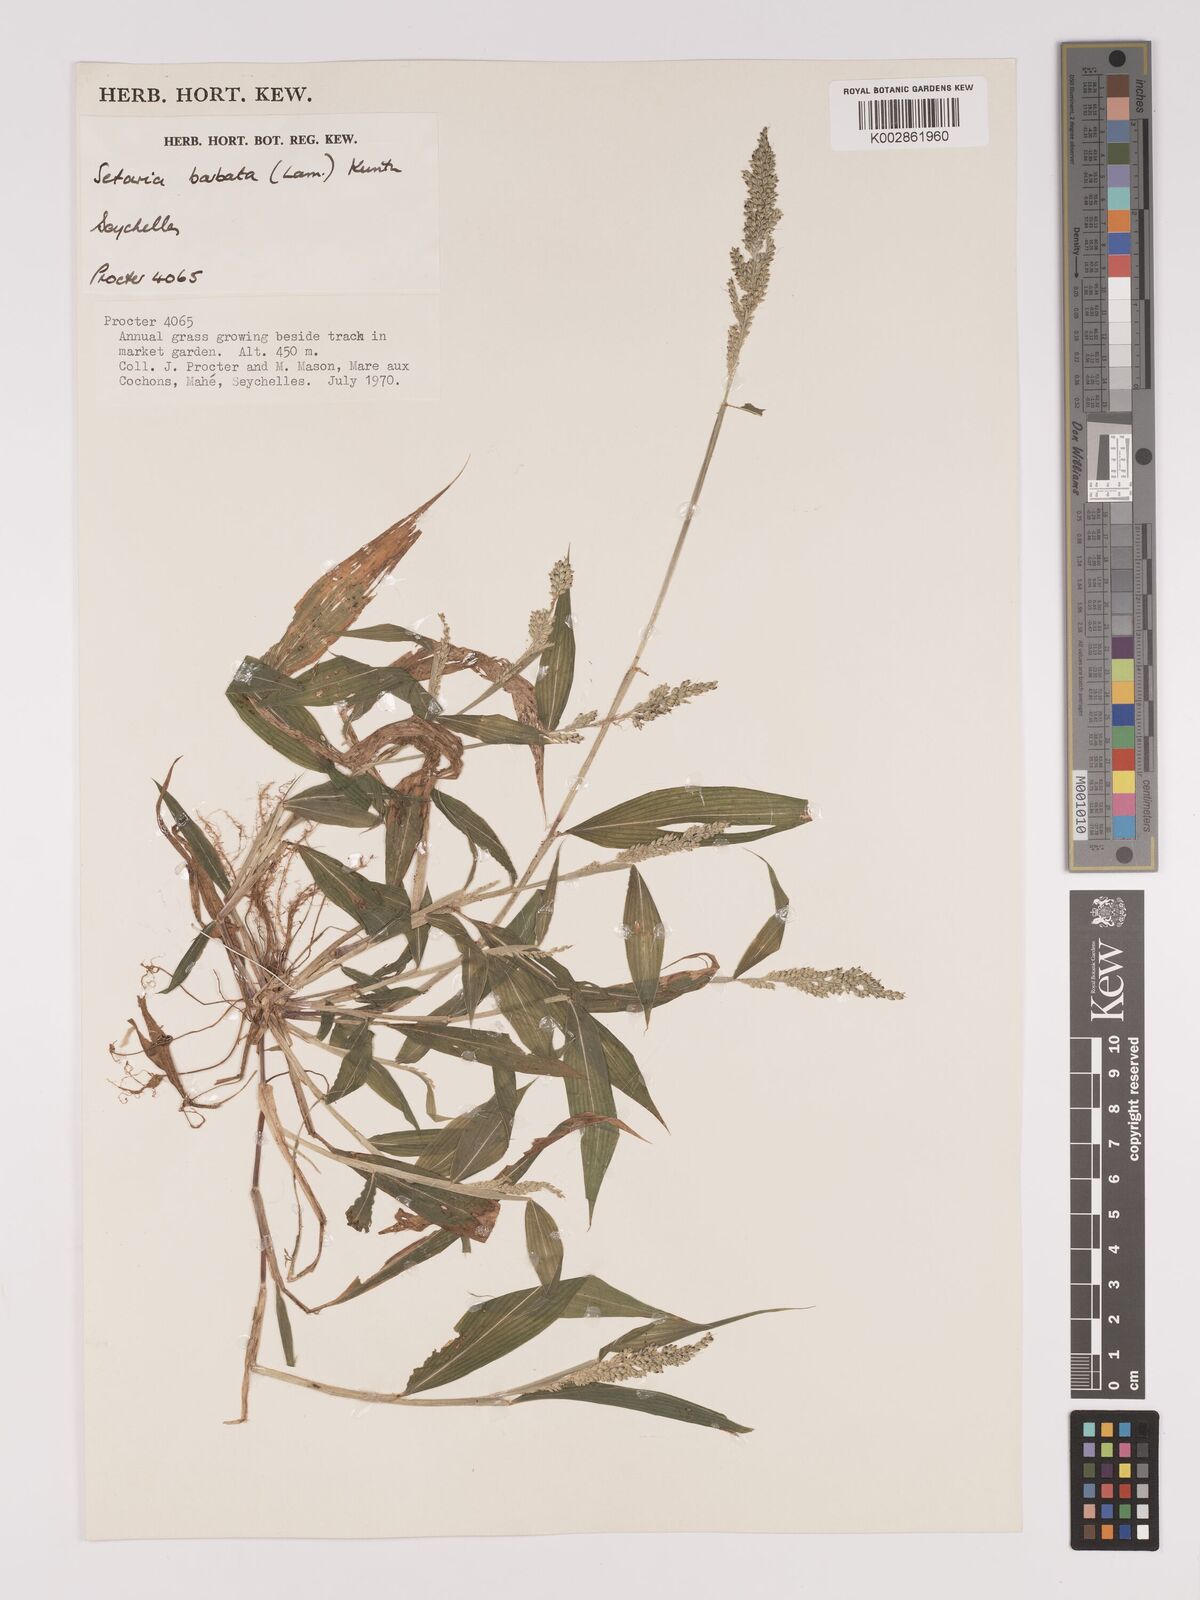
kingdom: Plantae
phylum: Tracheophyta
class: Liliopsida
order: Poales
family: Poaceae
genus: Setaria
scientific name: Setaria barbata
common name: East indian bristlegrass
